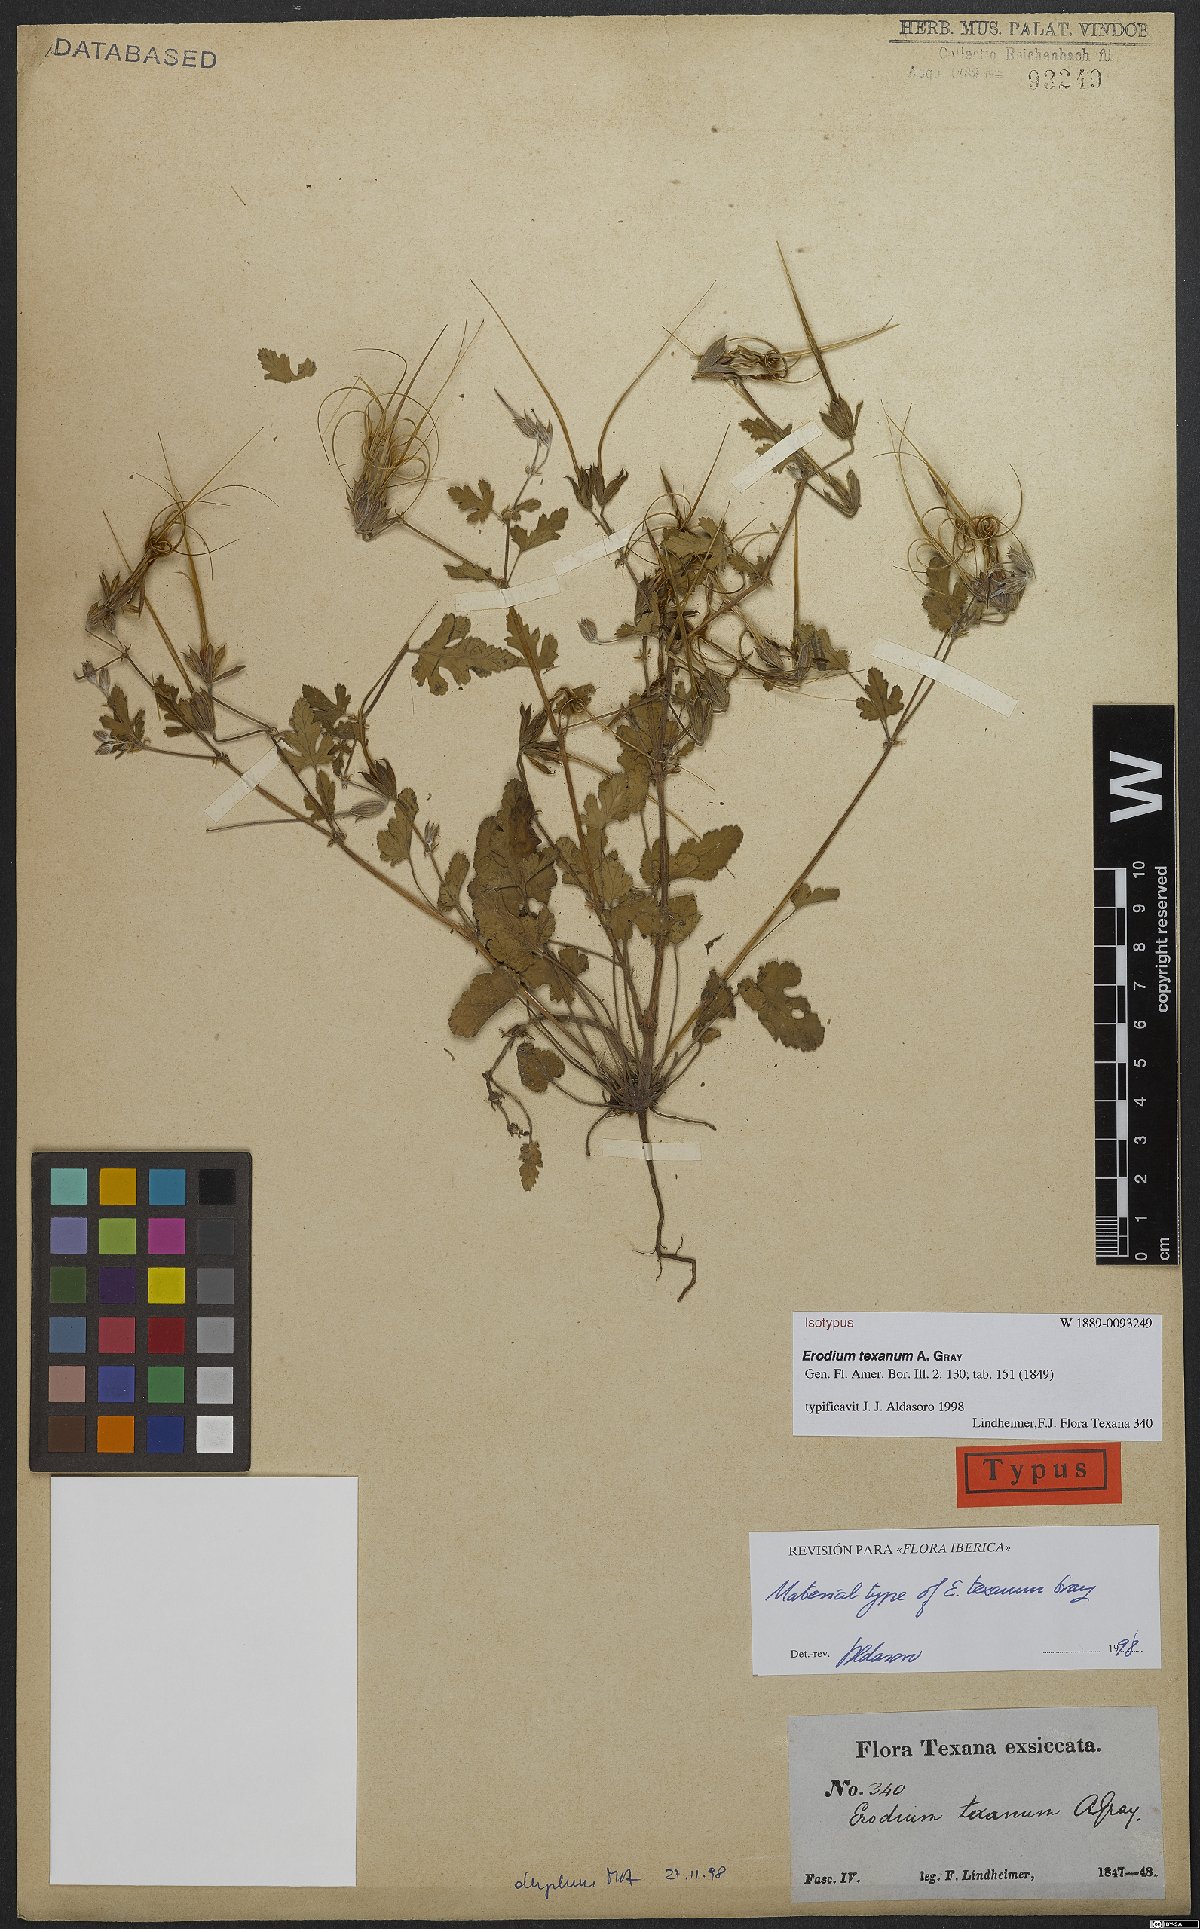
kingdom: Plantae
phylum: Tracheophyta
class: Magnoliopsida
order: Geraniales
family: Geraniaceae
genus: Erodium
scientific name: Erodium texanum
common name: Texas stork's-bill
